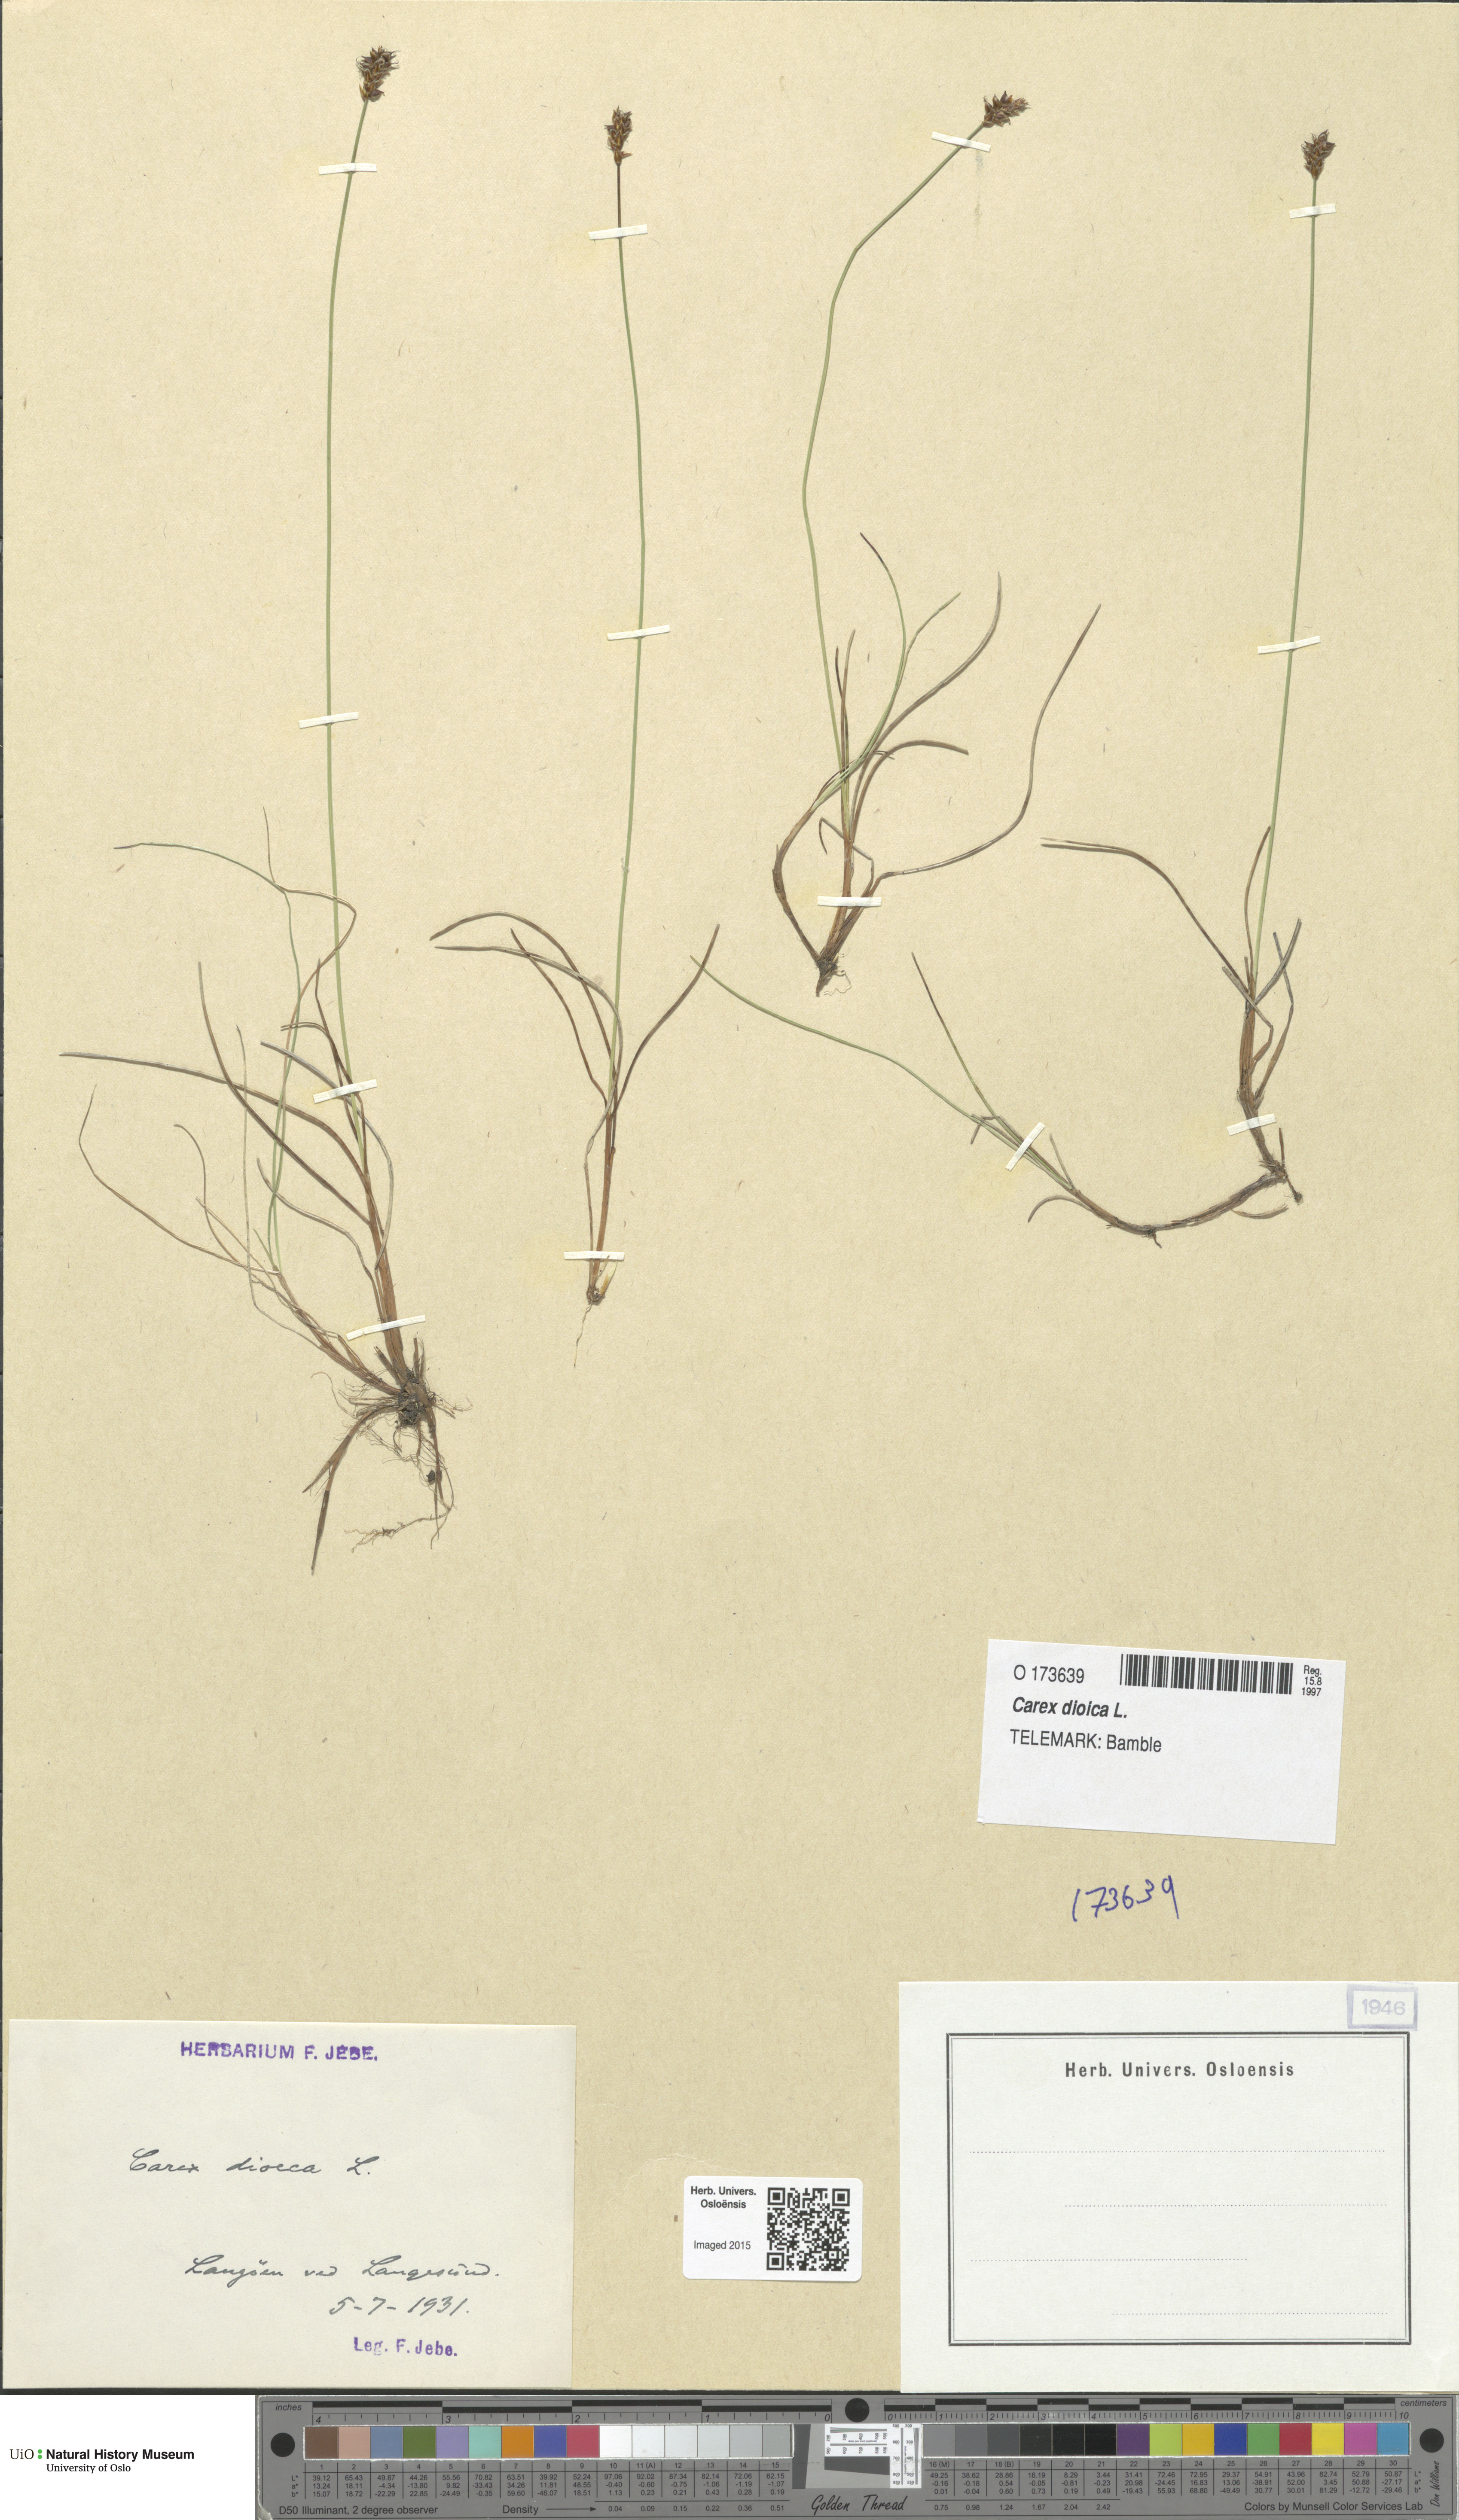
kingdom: Plantae
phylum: Tracheophyta
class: Liliopsida
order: Poales
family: Cyperaceae
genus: Carex
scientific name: Carex dioica
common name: Dioecious sedge
